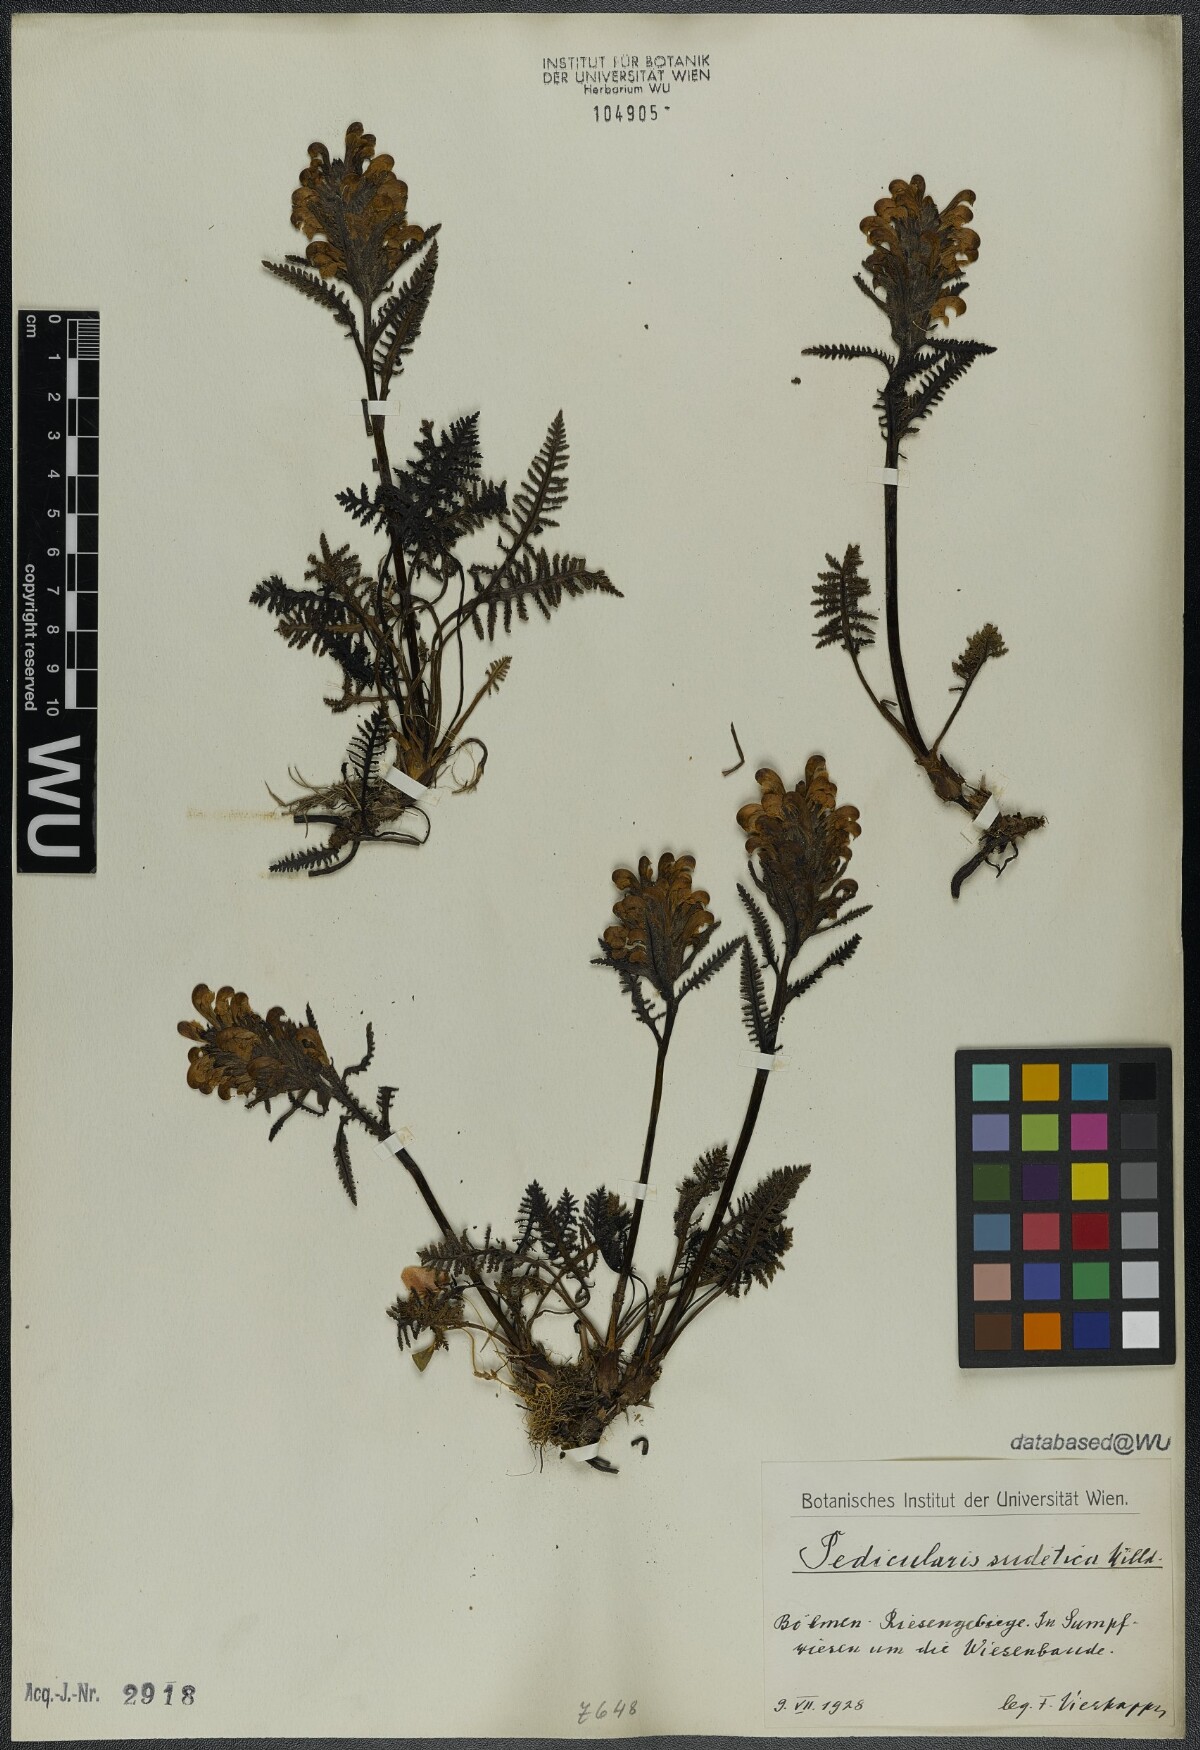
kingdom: Plantae
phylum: Tracheophyta
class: Magnoliopsida
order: Lamiales
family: Orobanchaceae
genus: Pedicularis
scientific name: Pedicularis sudetica
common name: Sudeten lousewort
